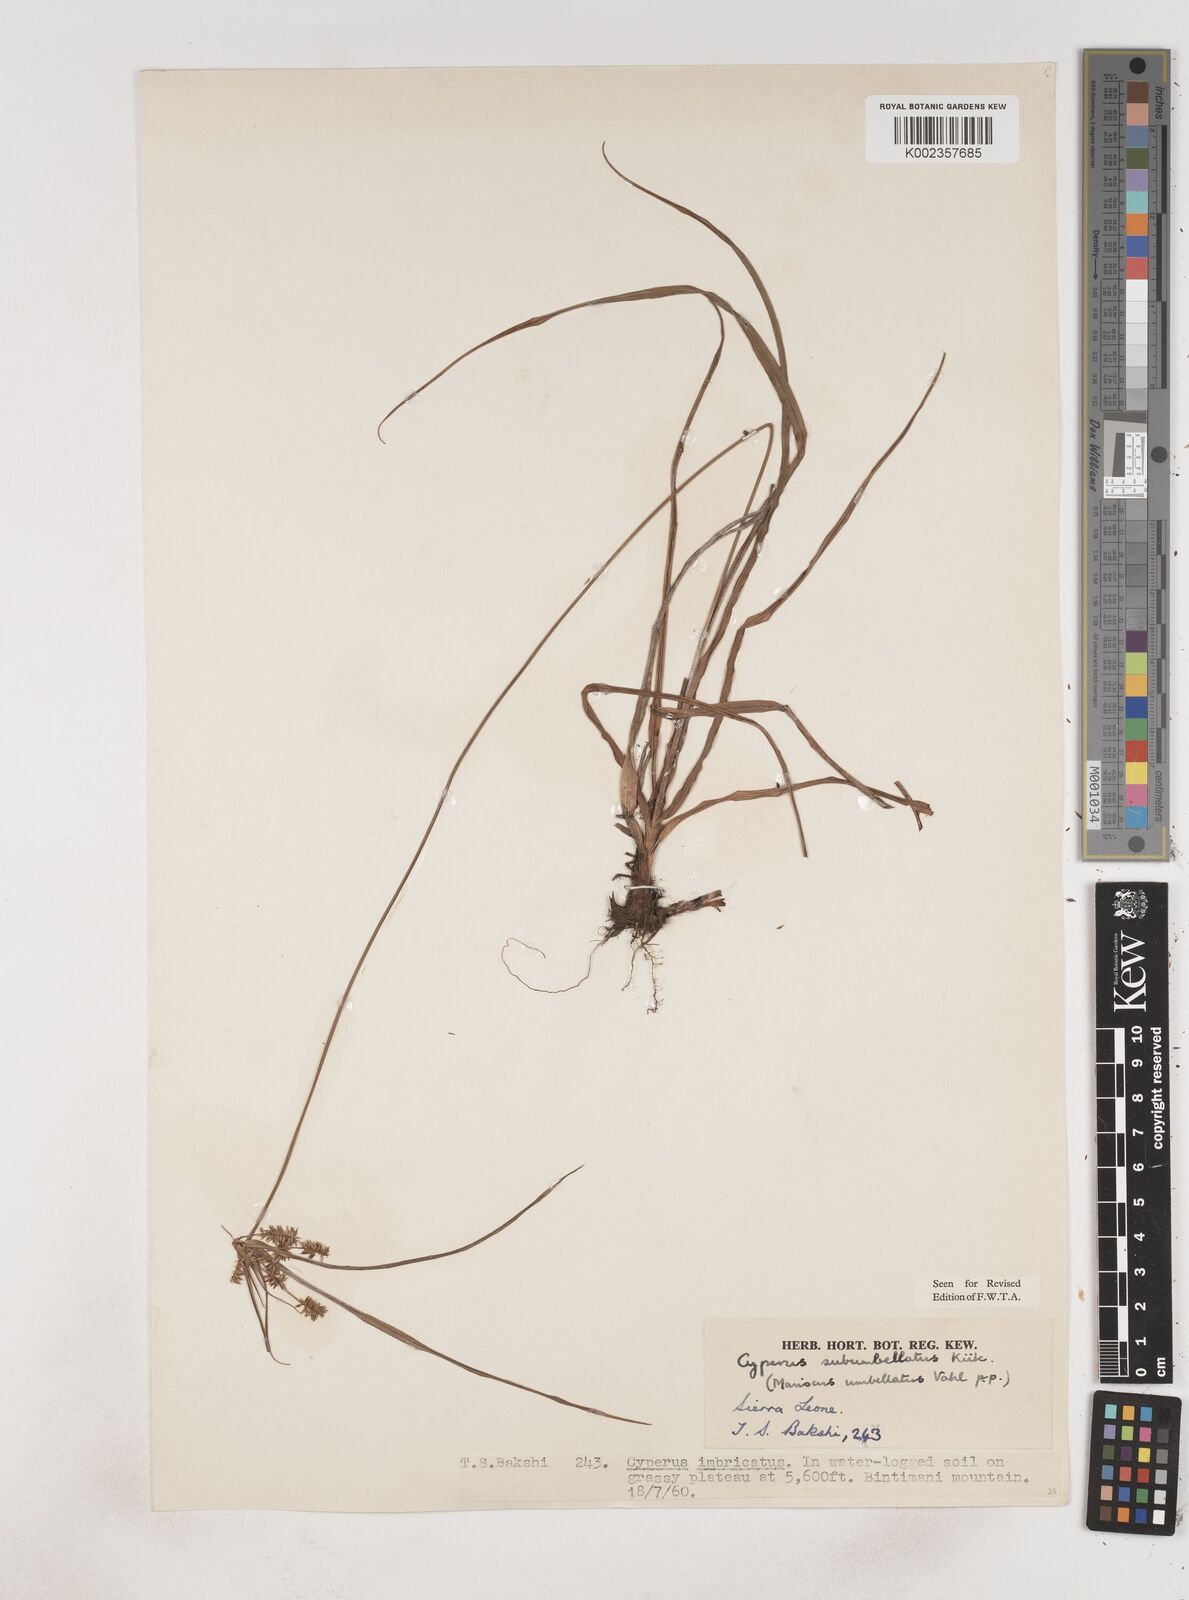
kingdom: Plantae
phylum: Tracheophyta
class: Liliopsida
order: Poales
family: Cyperaceae
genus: Cyperus
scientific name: Cyperus sublimis
